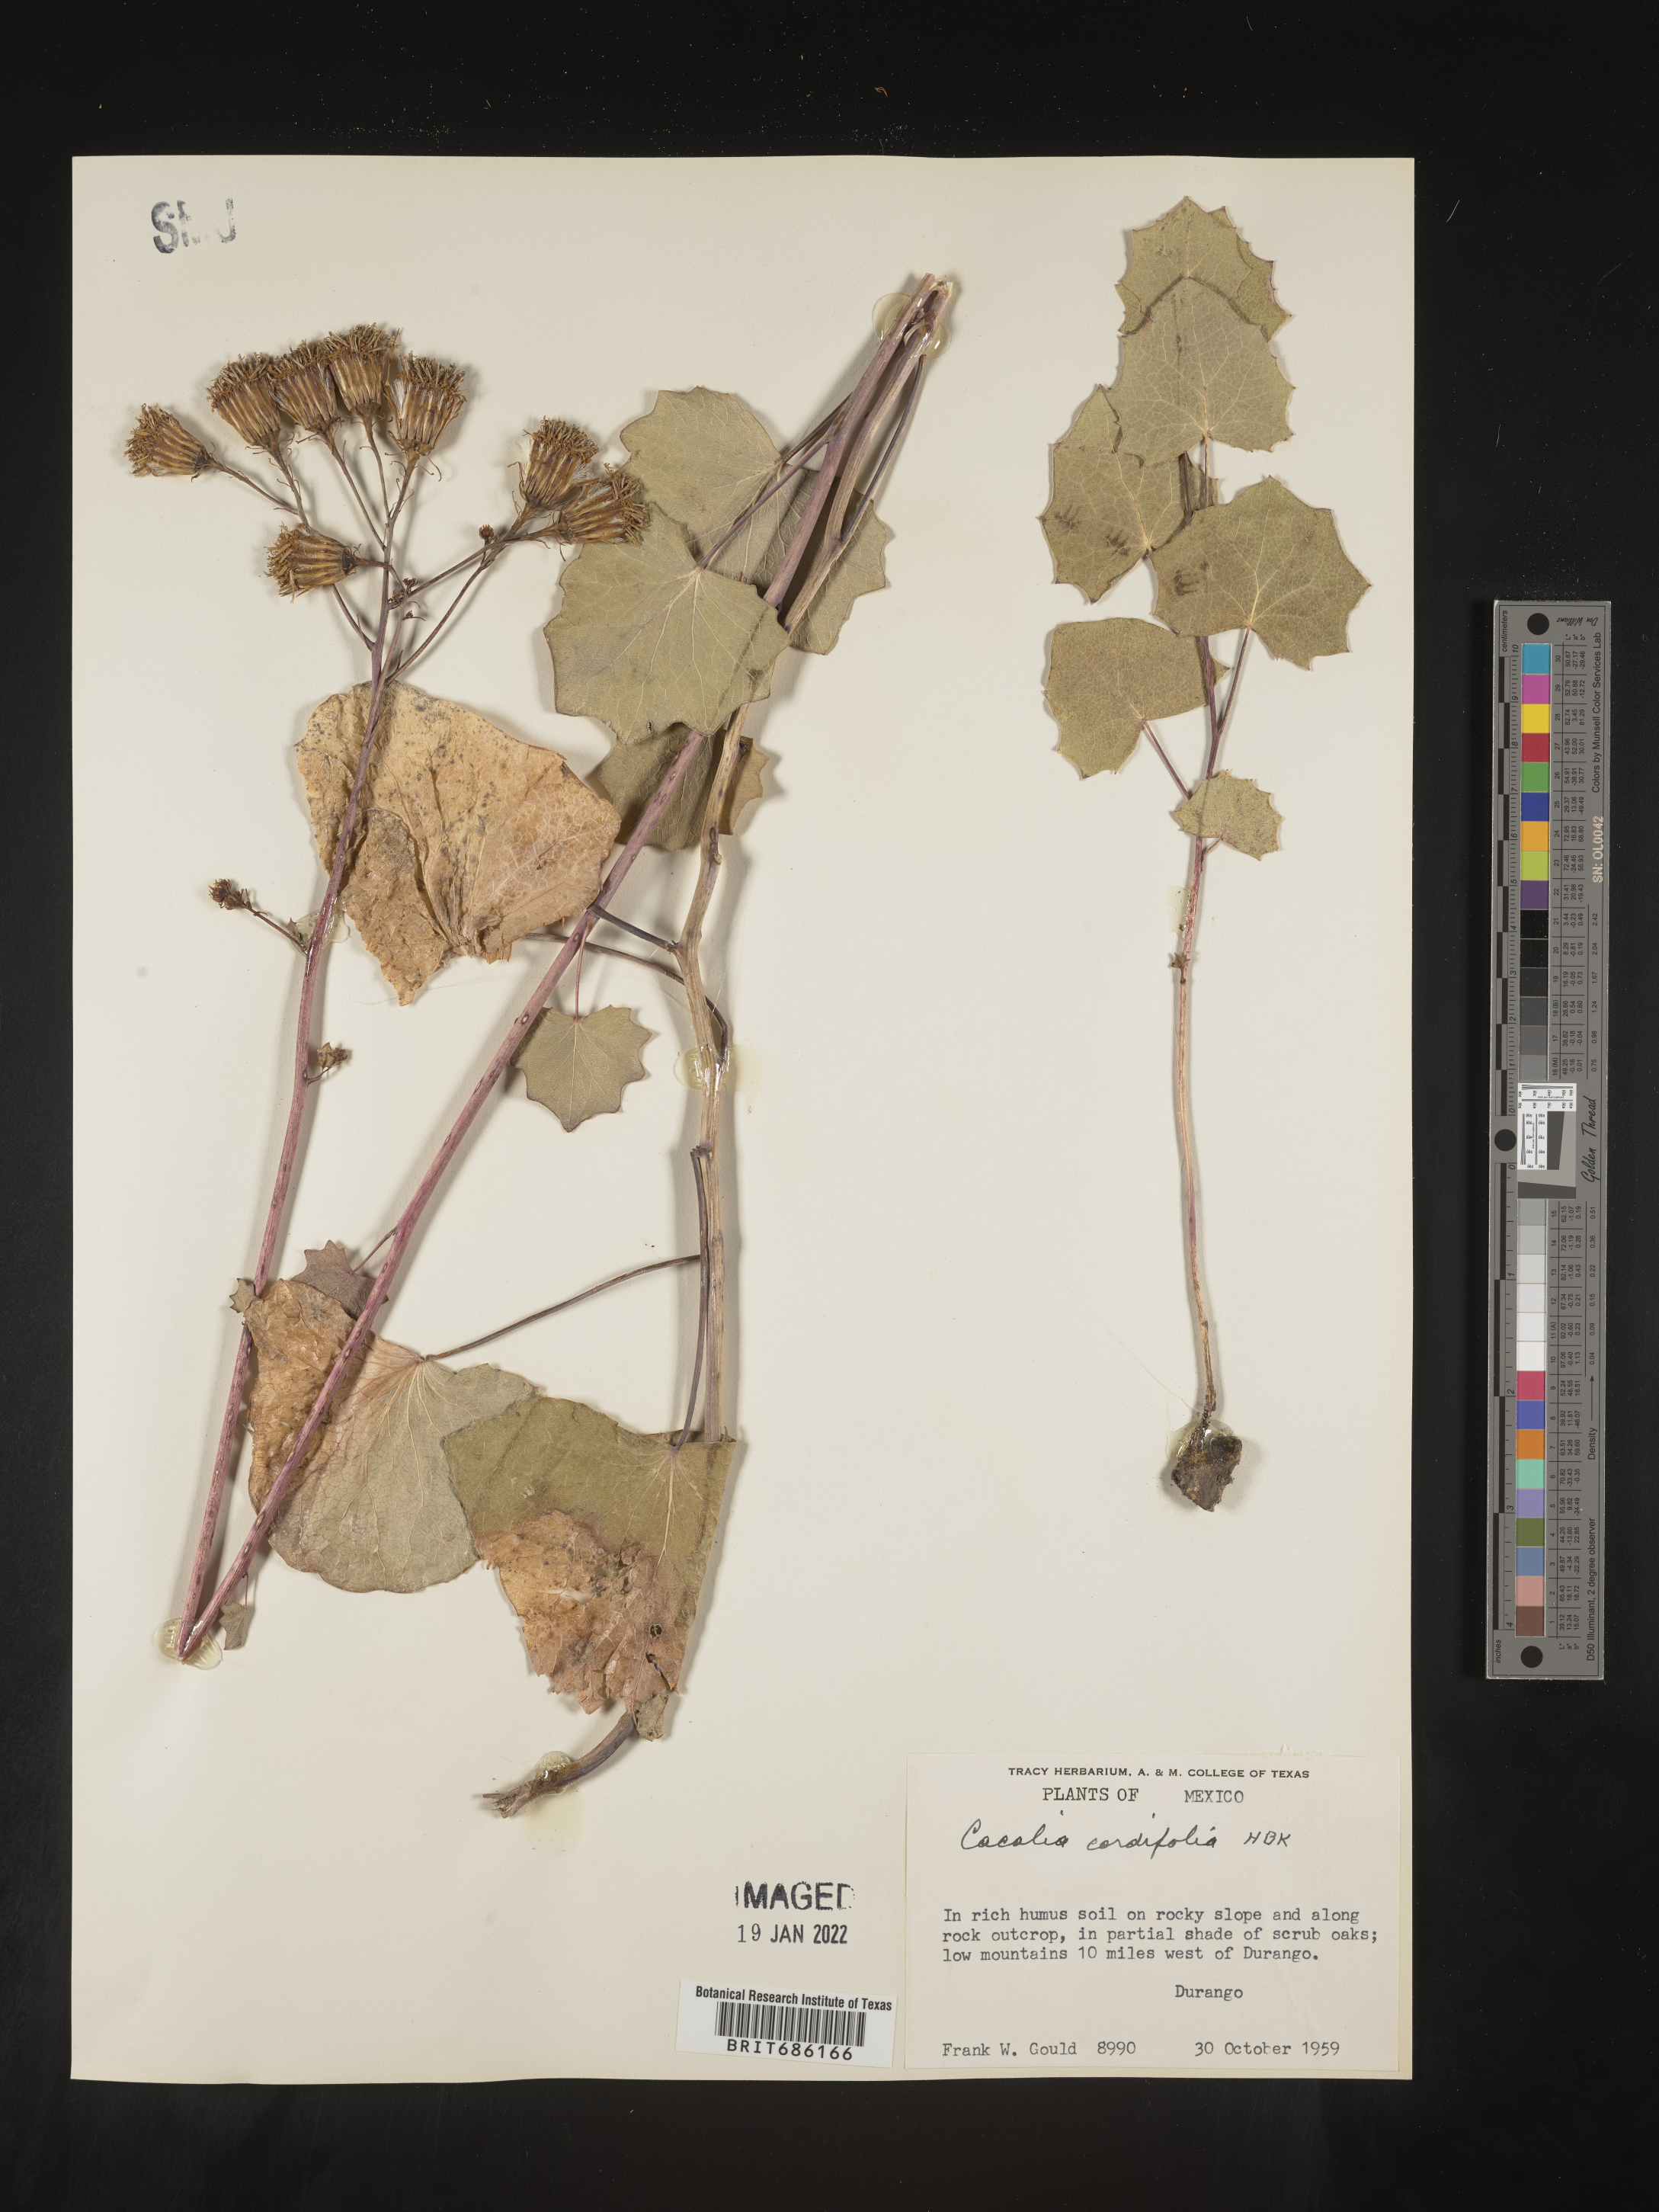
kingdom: Plantae
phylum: Tracheophyta
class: Magnoliopsida
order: Asterales
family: Asteraceae
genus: Cacalia
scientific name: Cacalia
